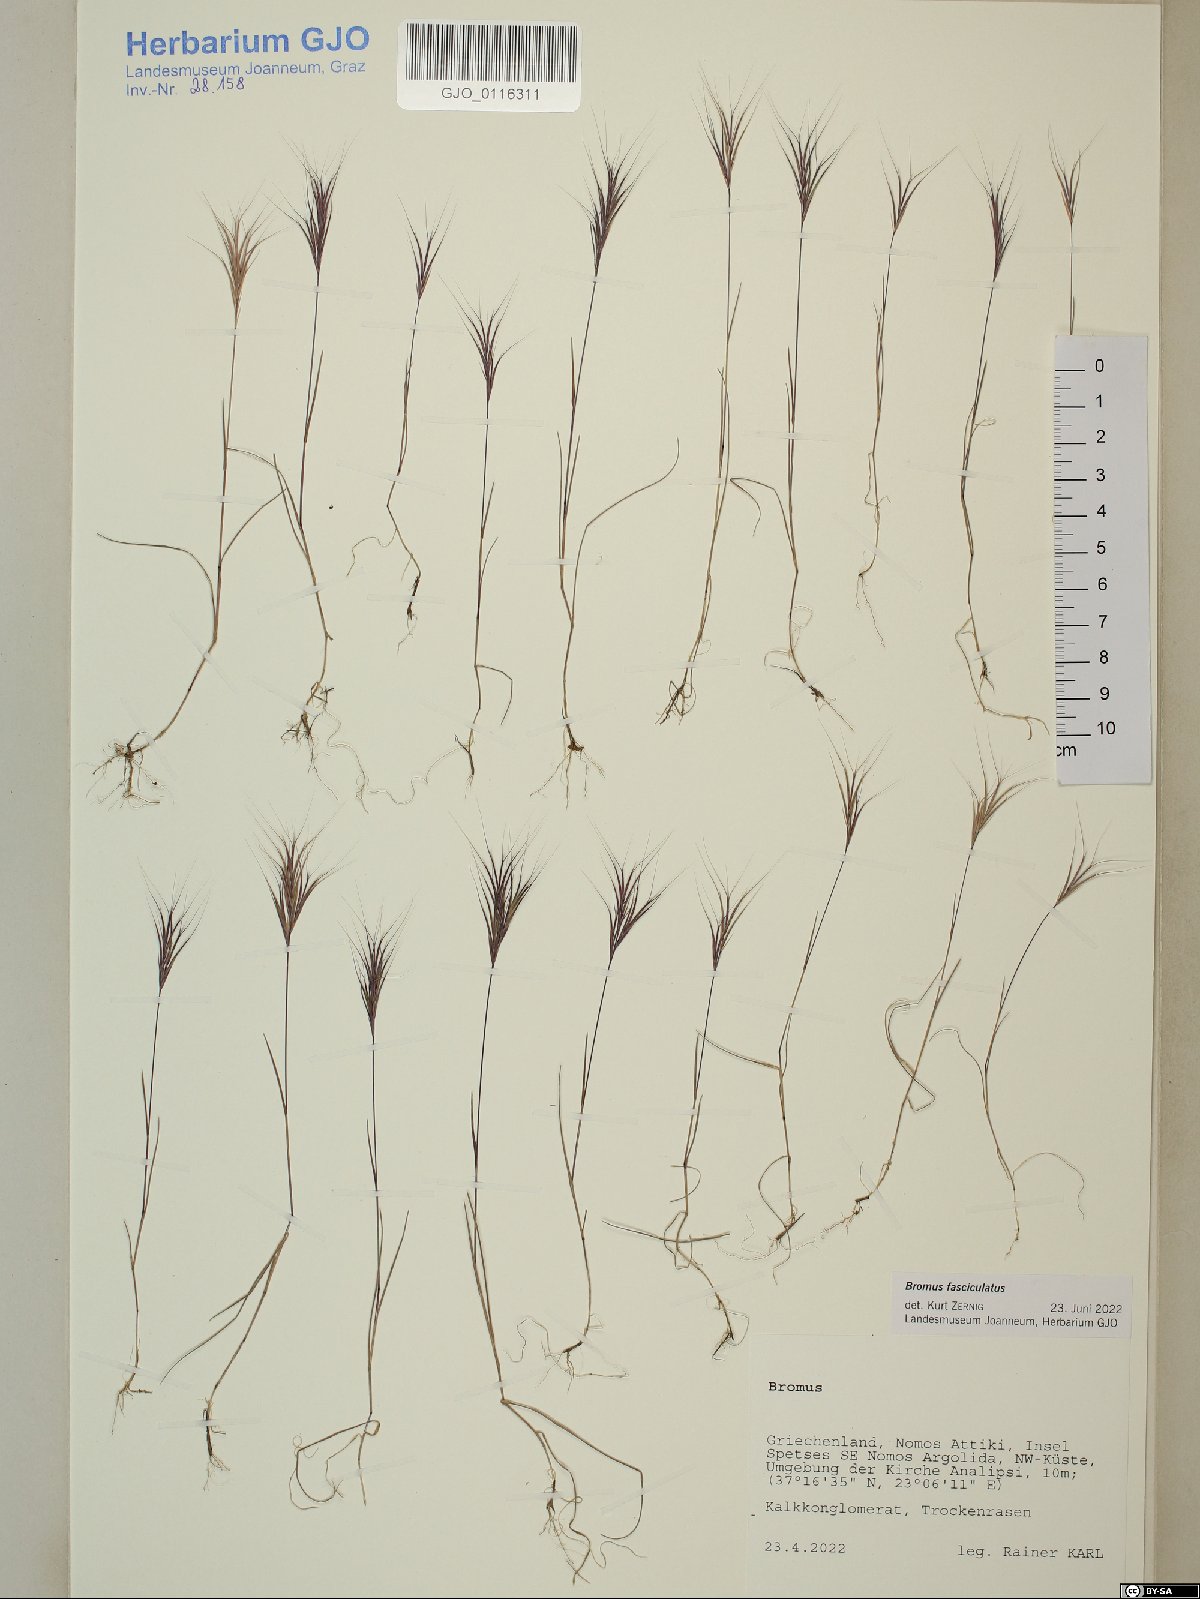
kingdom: Plantae
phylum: Tracheophyta
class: Liliopsida
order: Poales
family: Poaceae
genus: Bromus
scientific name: Bromus fasciculatus
